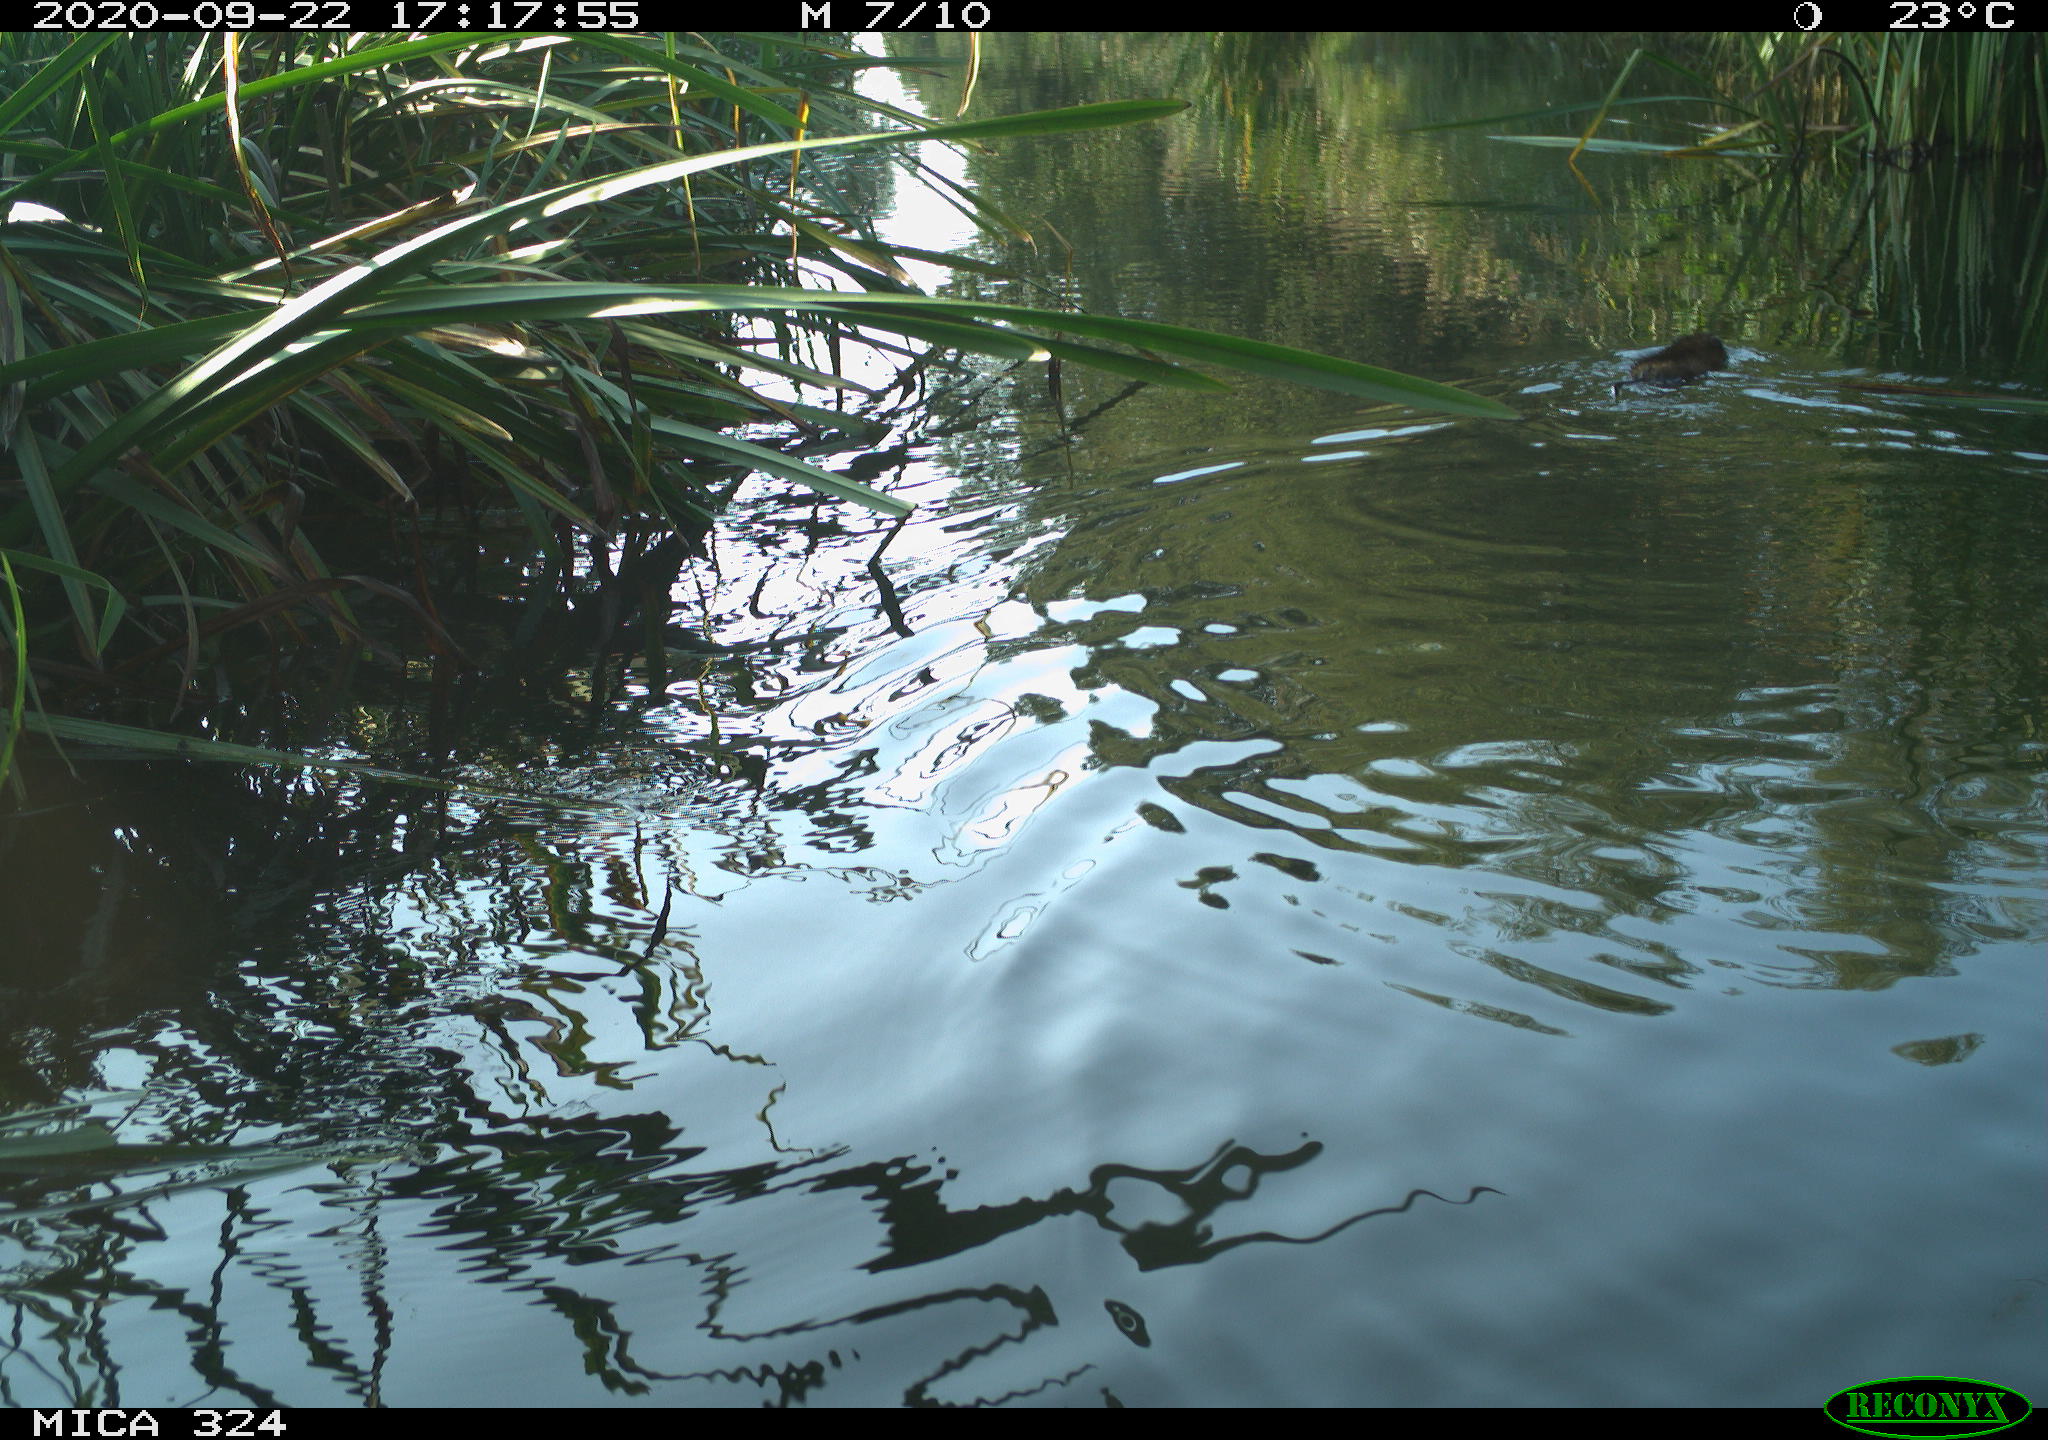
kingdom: Animalia
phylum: Chordata
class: Mammalia
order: Rodentia
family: Cricetidae
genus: Ondatra
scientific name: Ondatra zibethicus
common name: Muskrat
